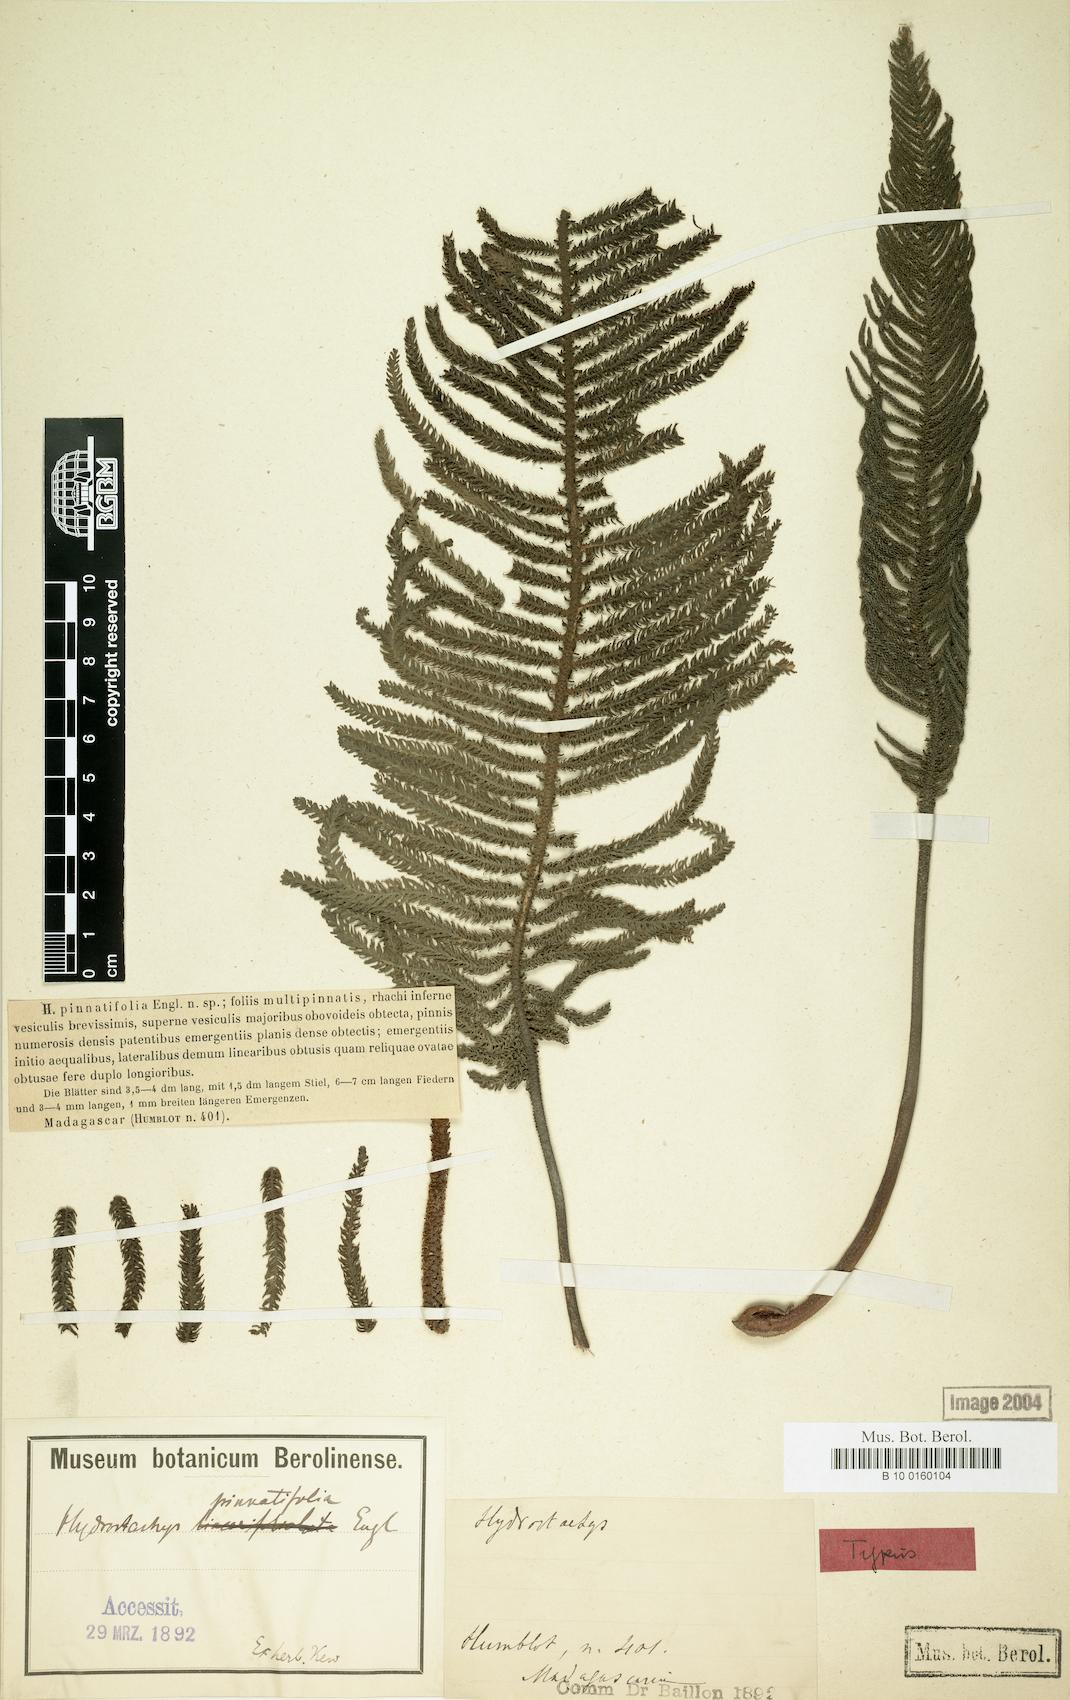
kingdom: Plantae
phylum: Tracheophyta
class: Magnoliopsida
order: Cornales
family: Hydrostachyaceae
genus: Hydrostachys
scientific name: Hydrostachys plumosa
